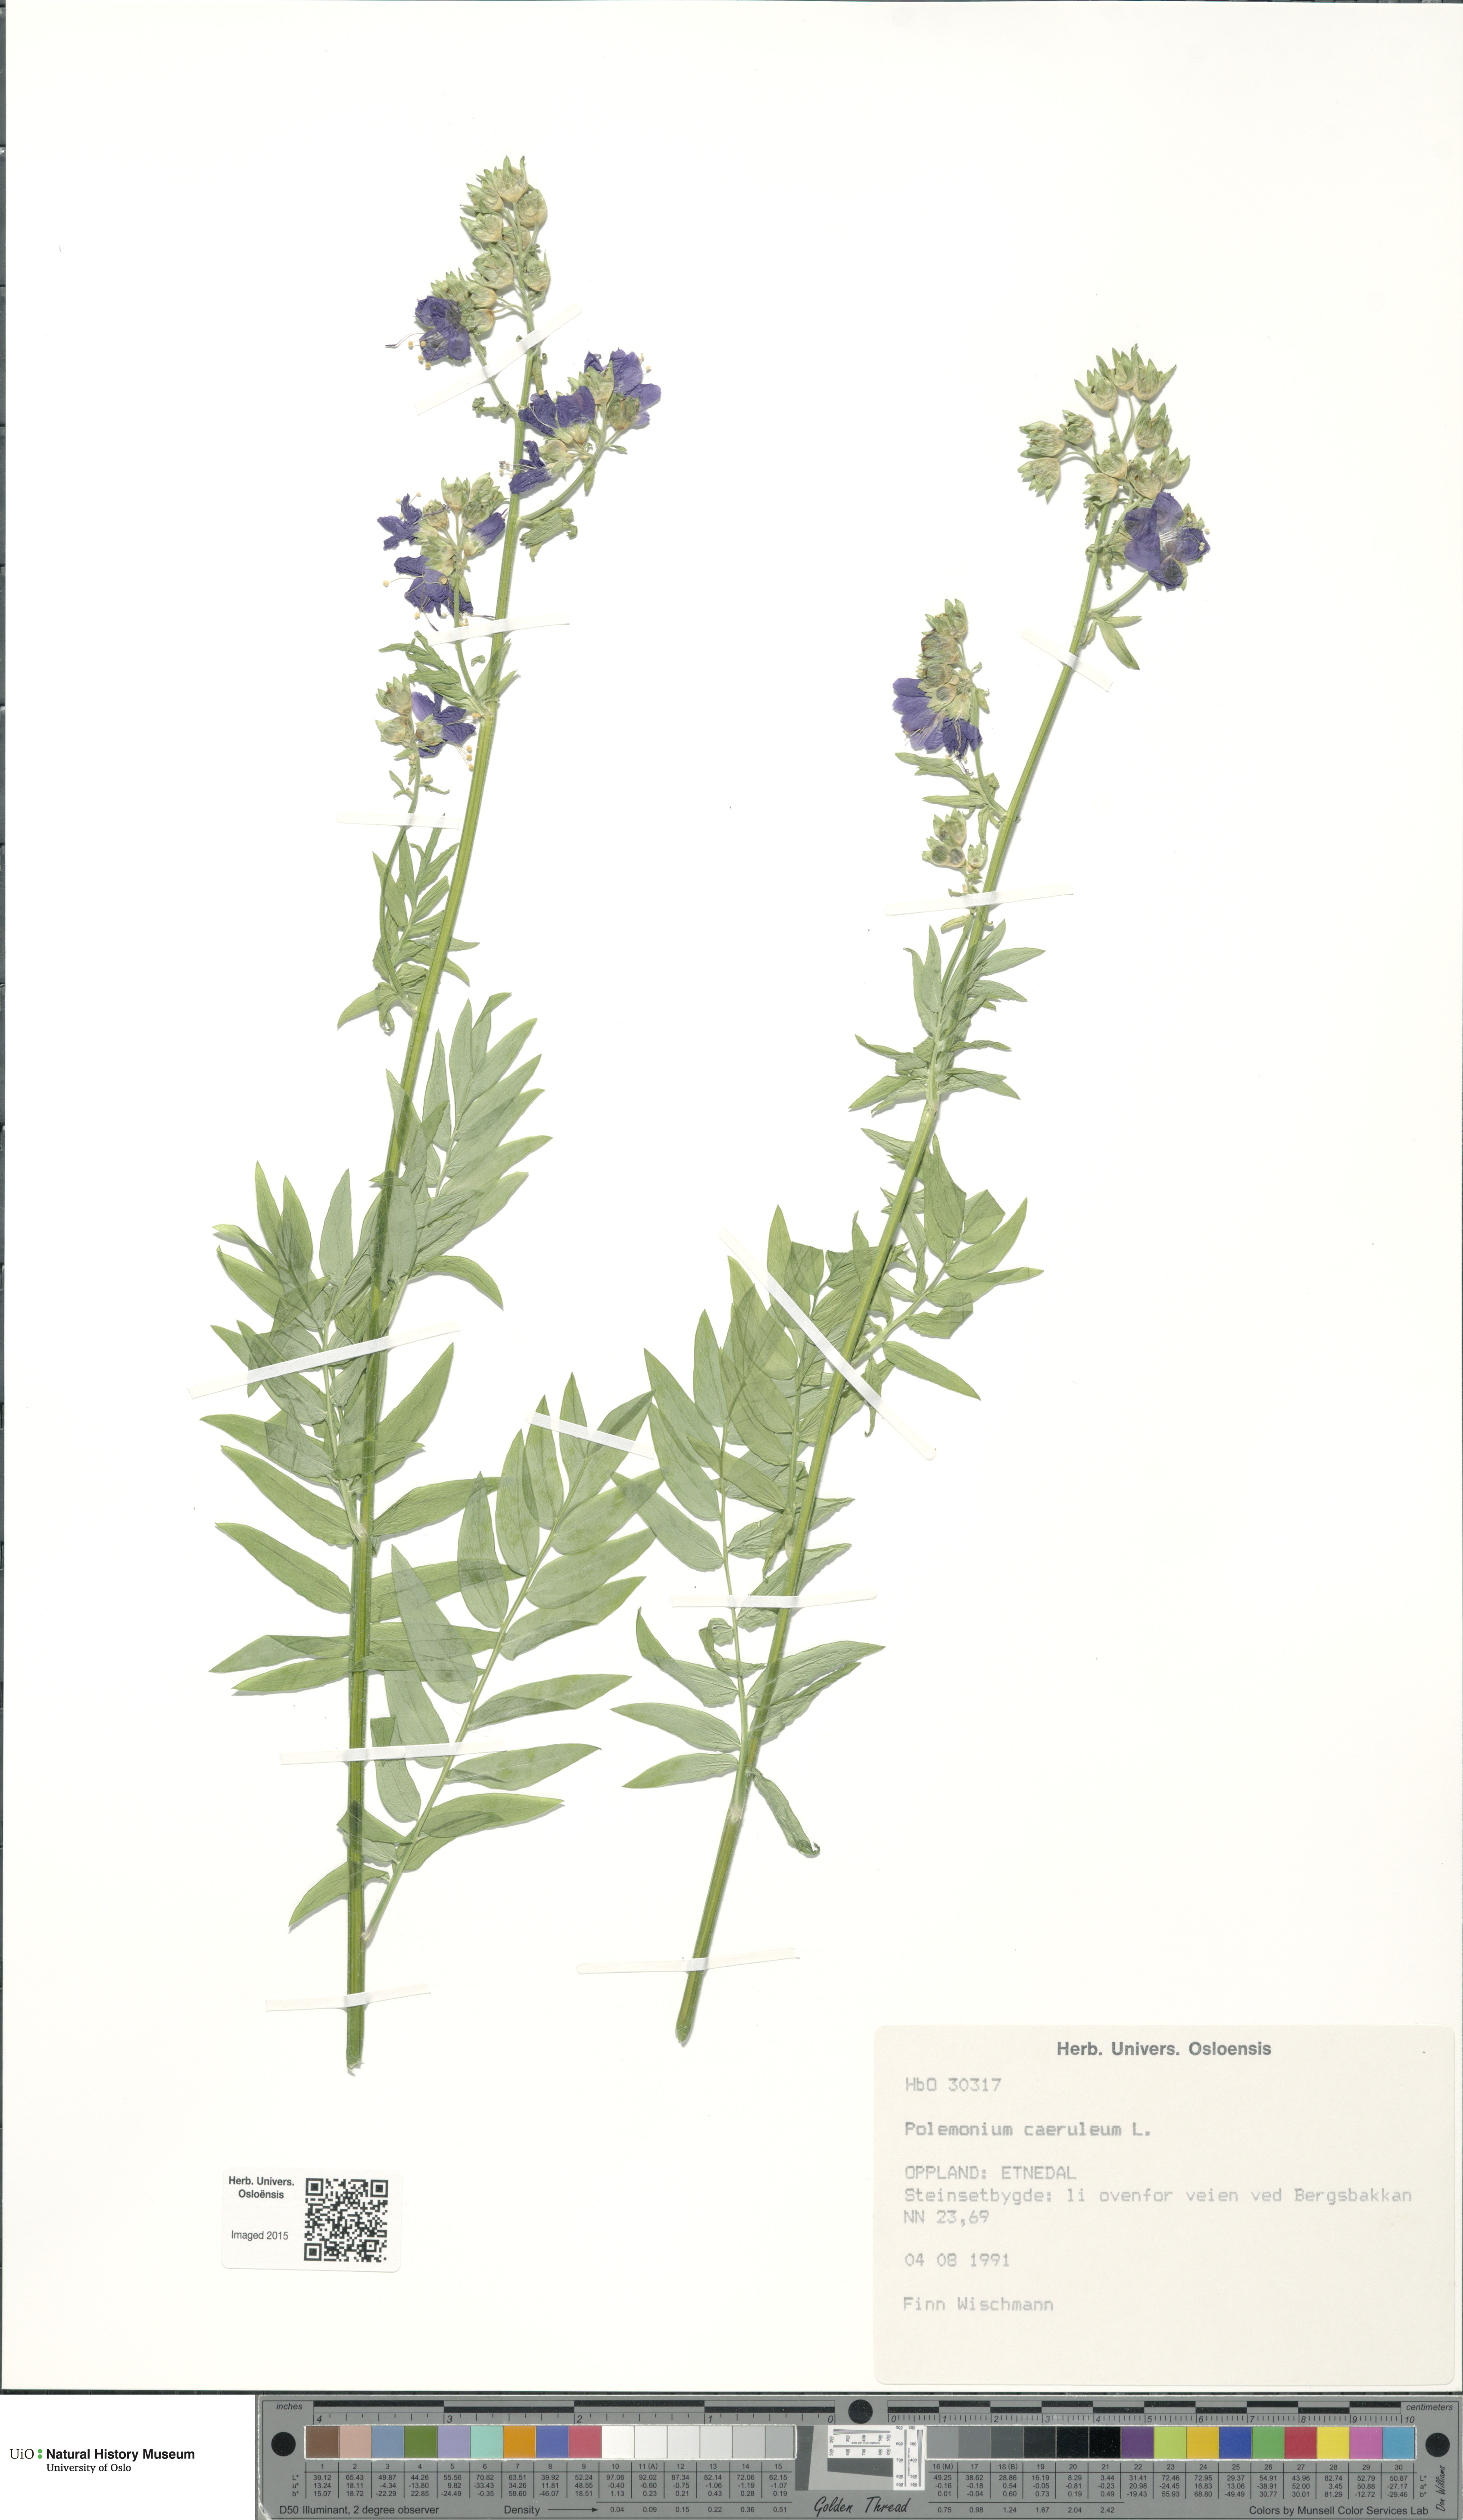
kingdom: Plantae
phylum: Tracheophyta
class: Magnoliopsida
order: Ericales
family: Polemoniaceae
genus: Polemonium
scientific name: Polemonium caeruleum
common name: Jacob's-ladder
